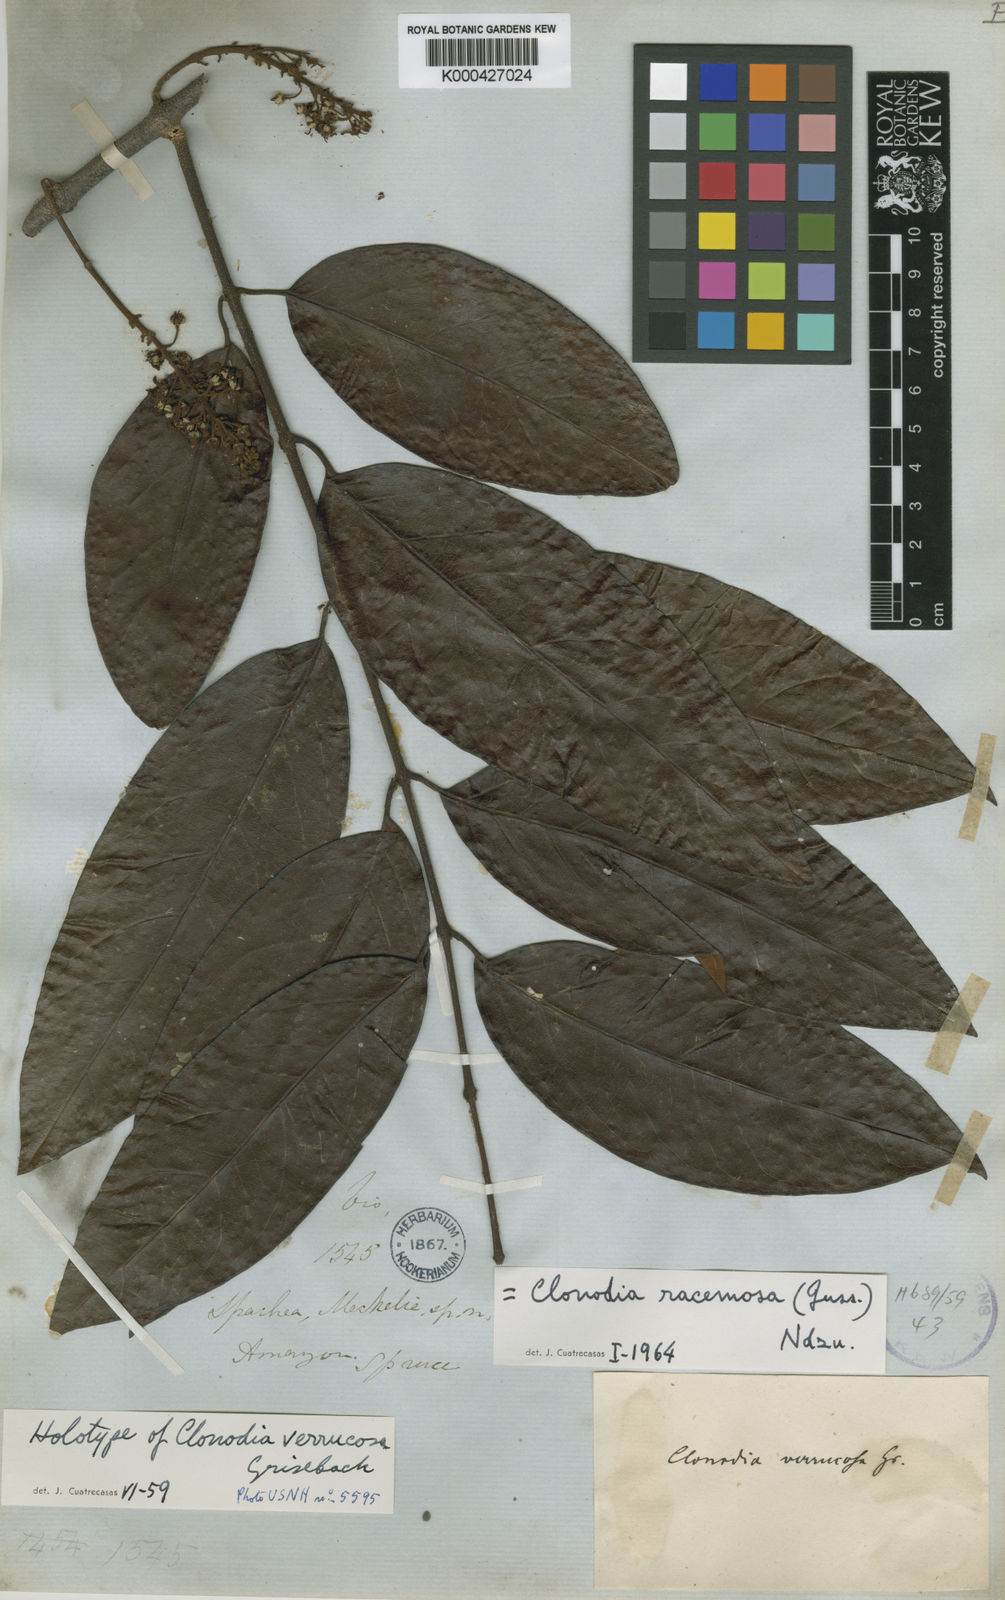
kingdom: Plantae
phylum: Tracheophyta
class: Magnoliopsida
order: Malpighiales
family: Malpighiaceae
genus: Heteropterys
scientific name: Heteropterys racemosa
